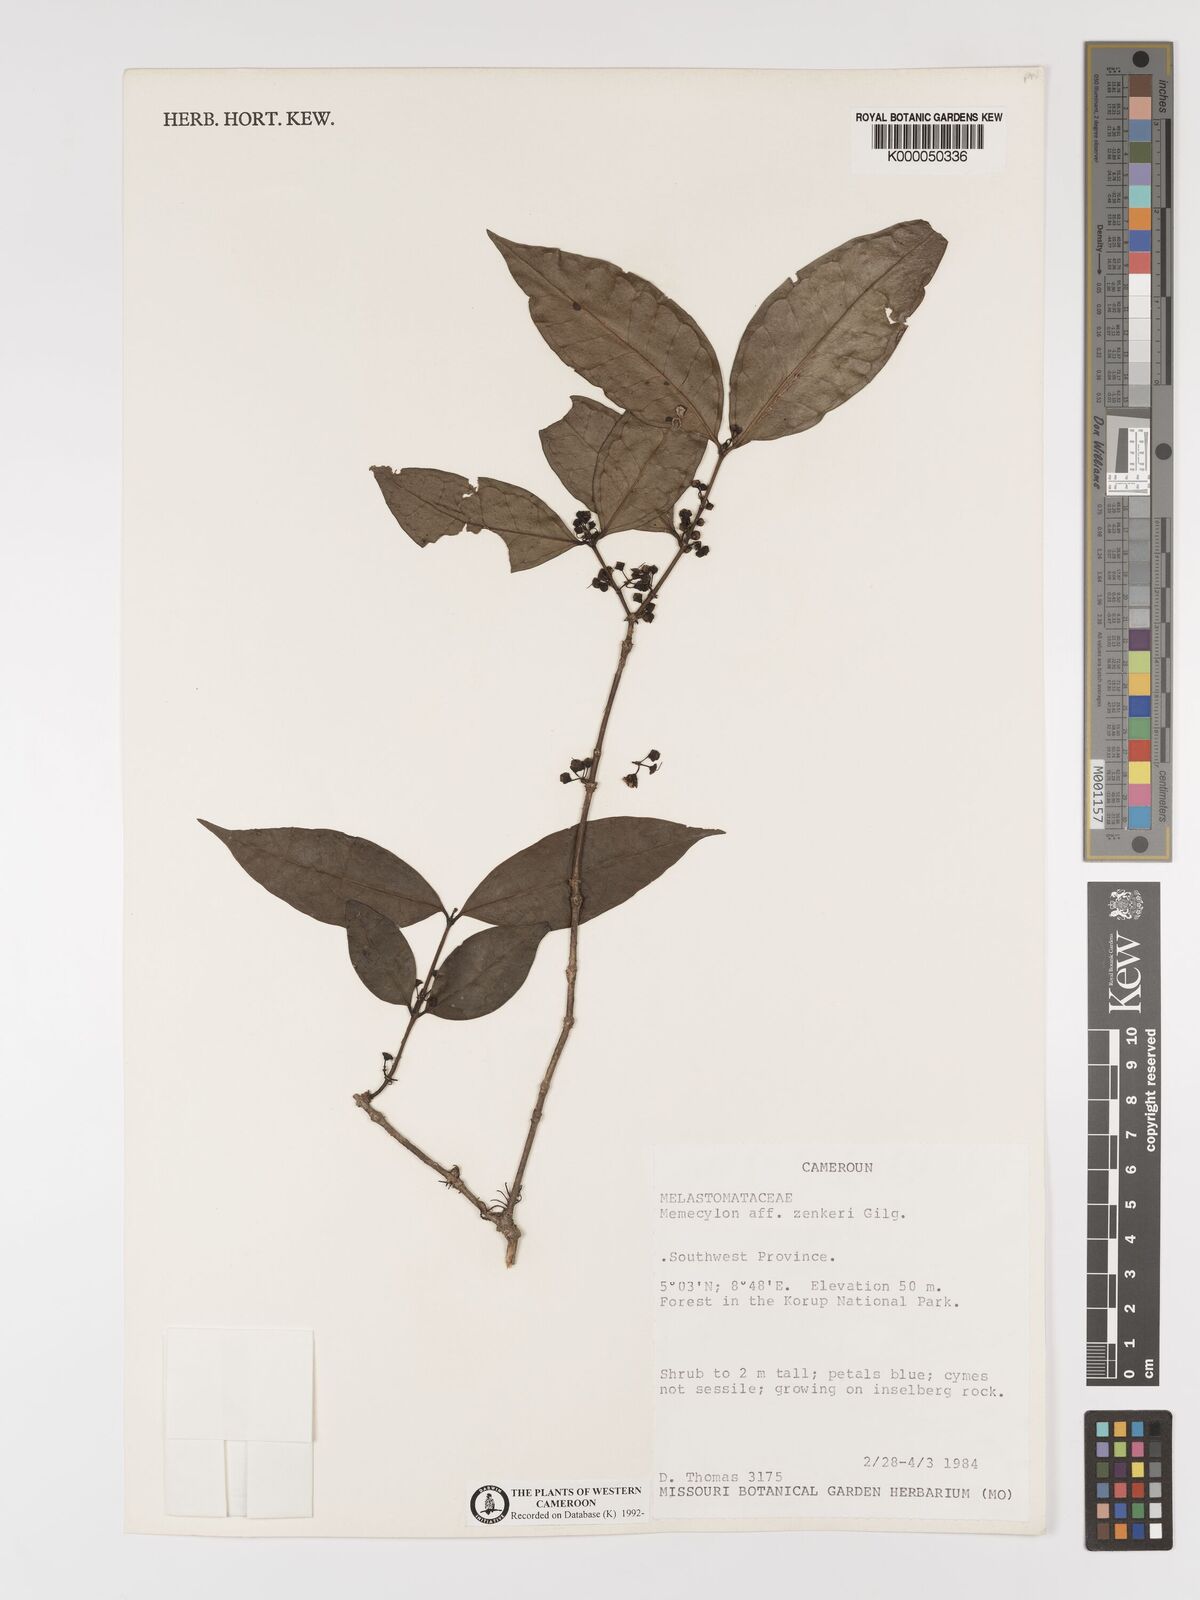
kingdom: Plantae
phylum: Tracheophyta
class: Magnoliopsida
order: Myrtales
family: Melastomataceae
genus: Memecylon
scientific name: Memecylon zenkeri
